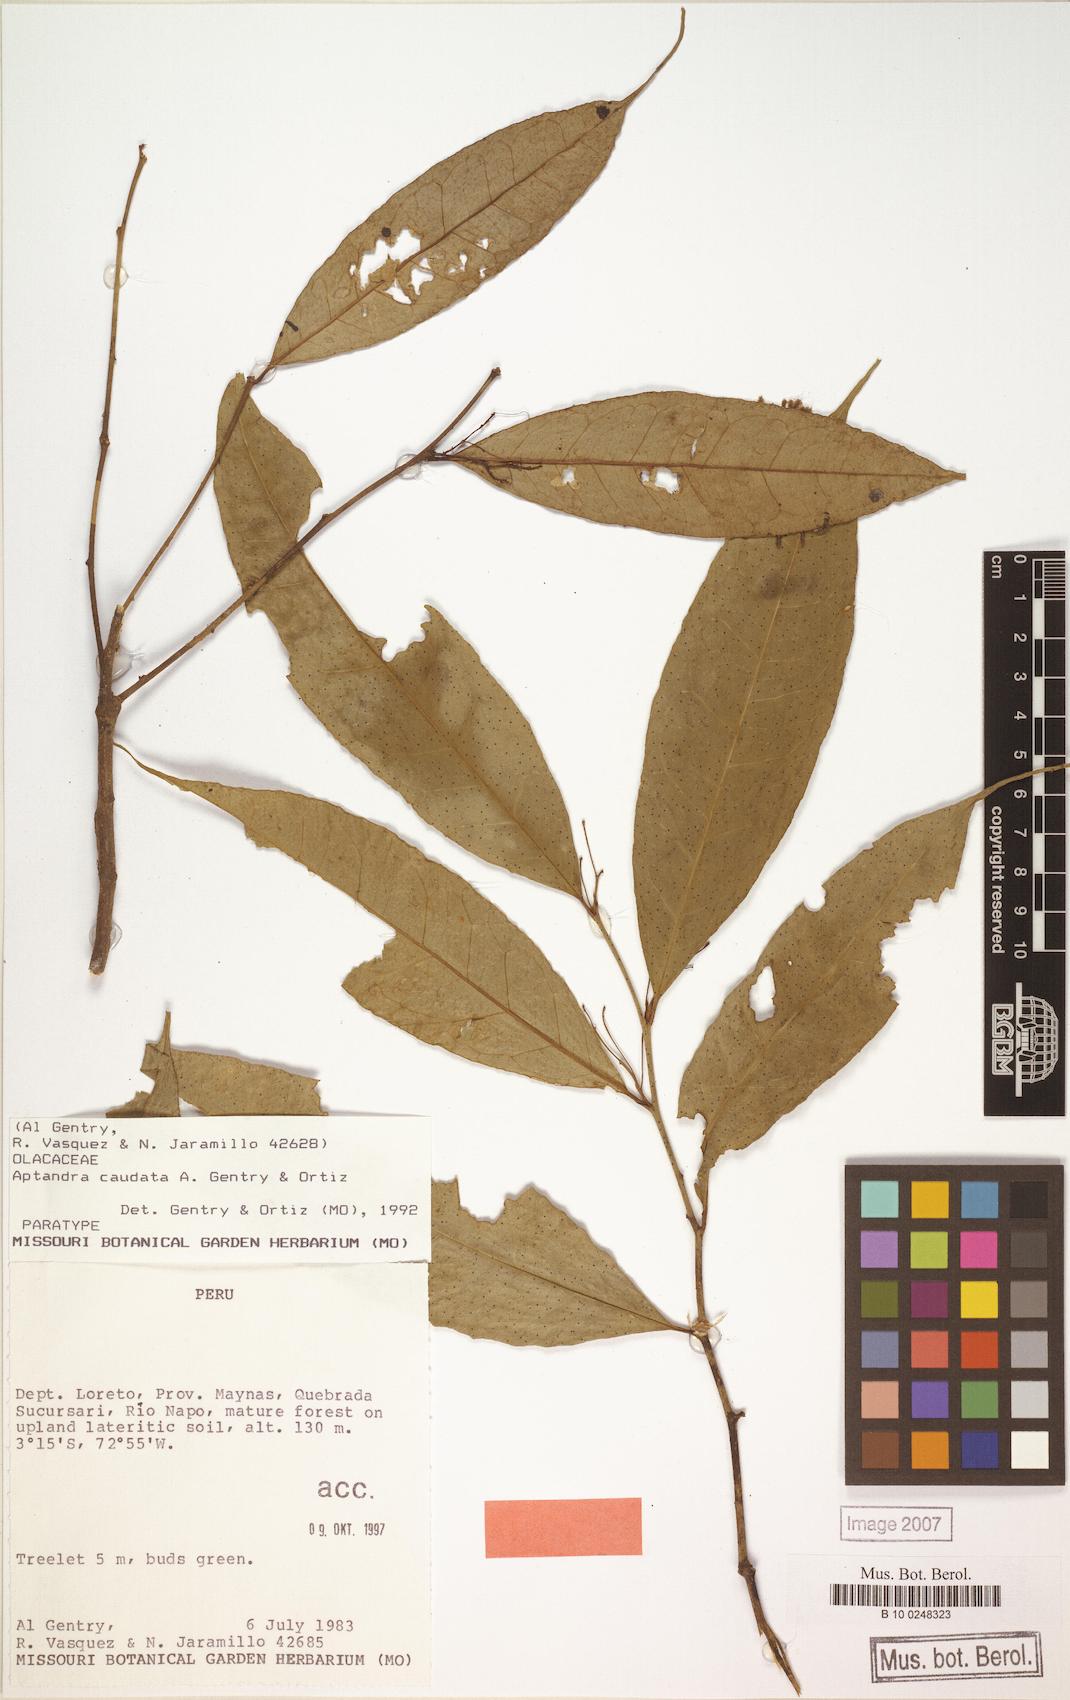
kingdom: Plantae
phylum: Tracheophyta
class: Magnoliopsida
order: Santalales
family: Aptandraceae
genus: Aptandra
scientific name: Aptandra caudata
